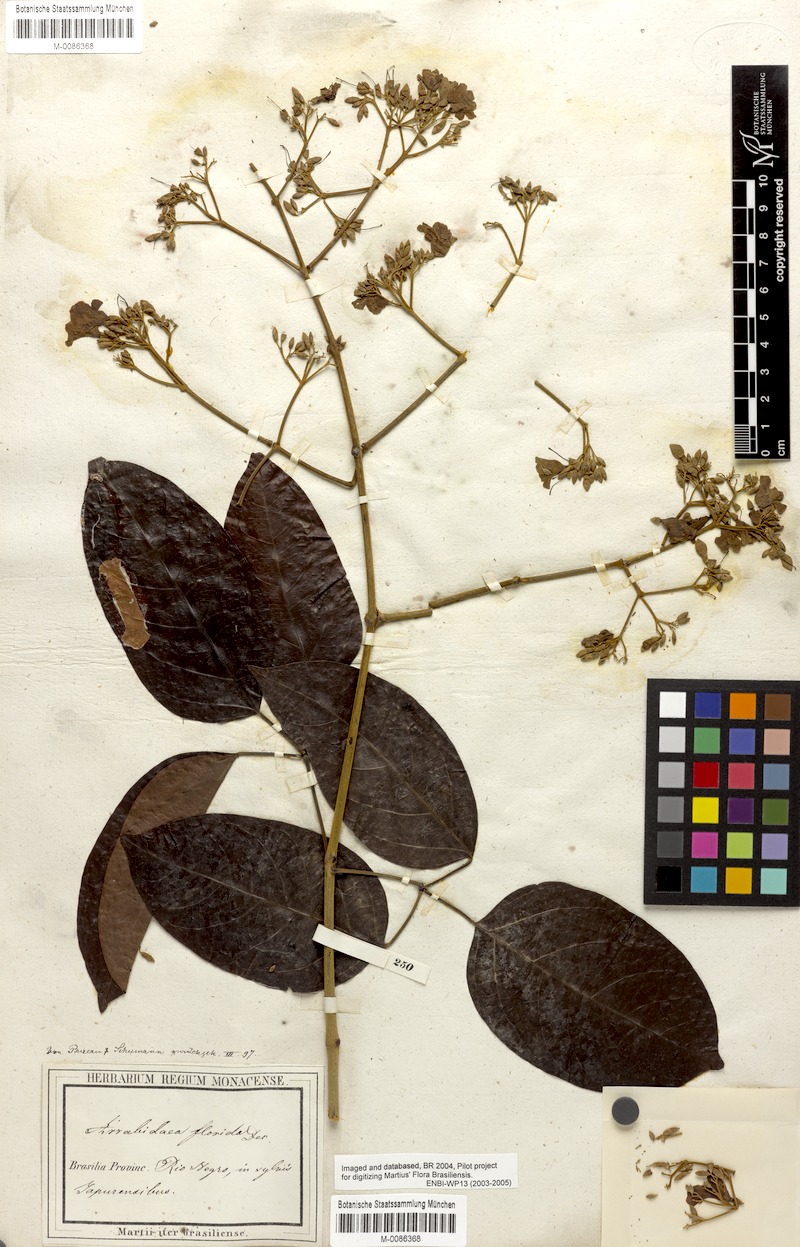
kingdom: Plantae
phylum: Tracheophyta
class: Magnoliopsida
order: Lamiales
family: Bignoniaceae
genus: Fridericia
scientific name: Fridericia florida
